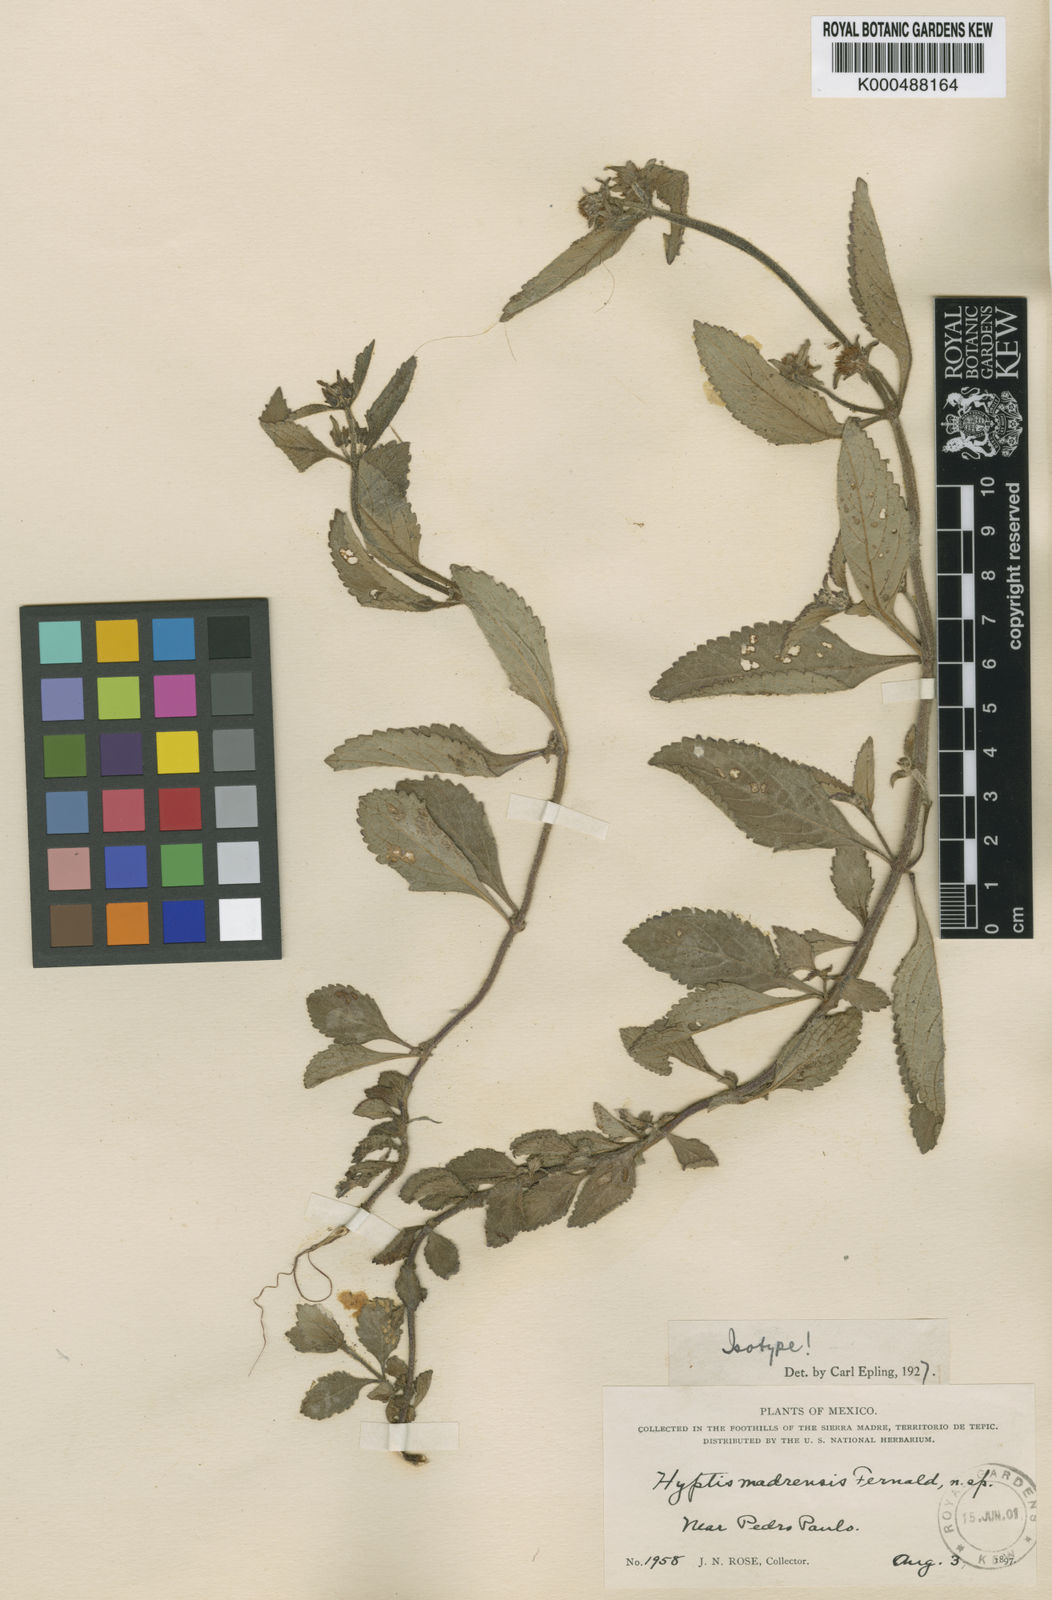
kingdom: Plantae
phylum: Tracheophyta
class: Magnoliopsida
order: Lamiales
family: Lamiaceae
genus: Hyptis
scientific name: Hyptis lantanifolia
